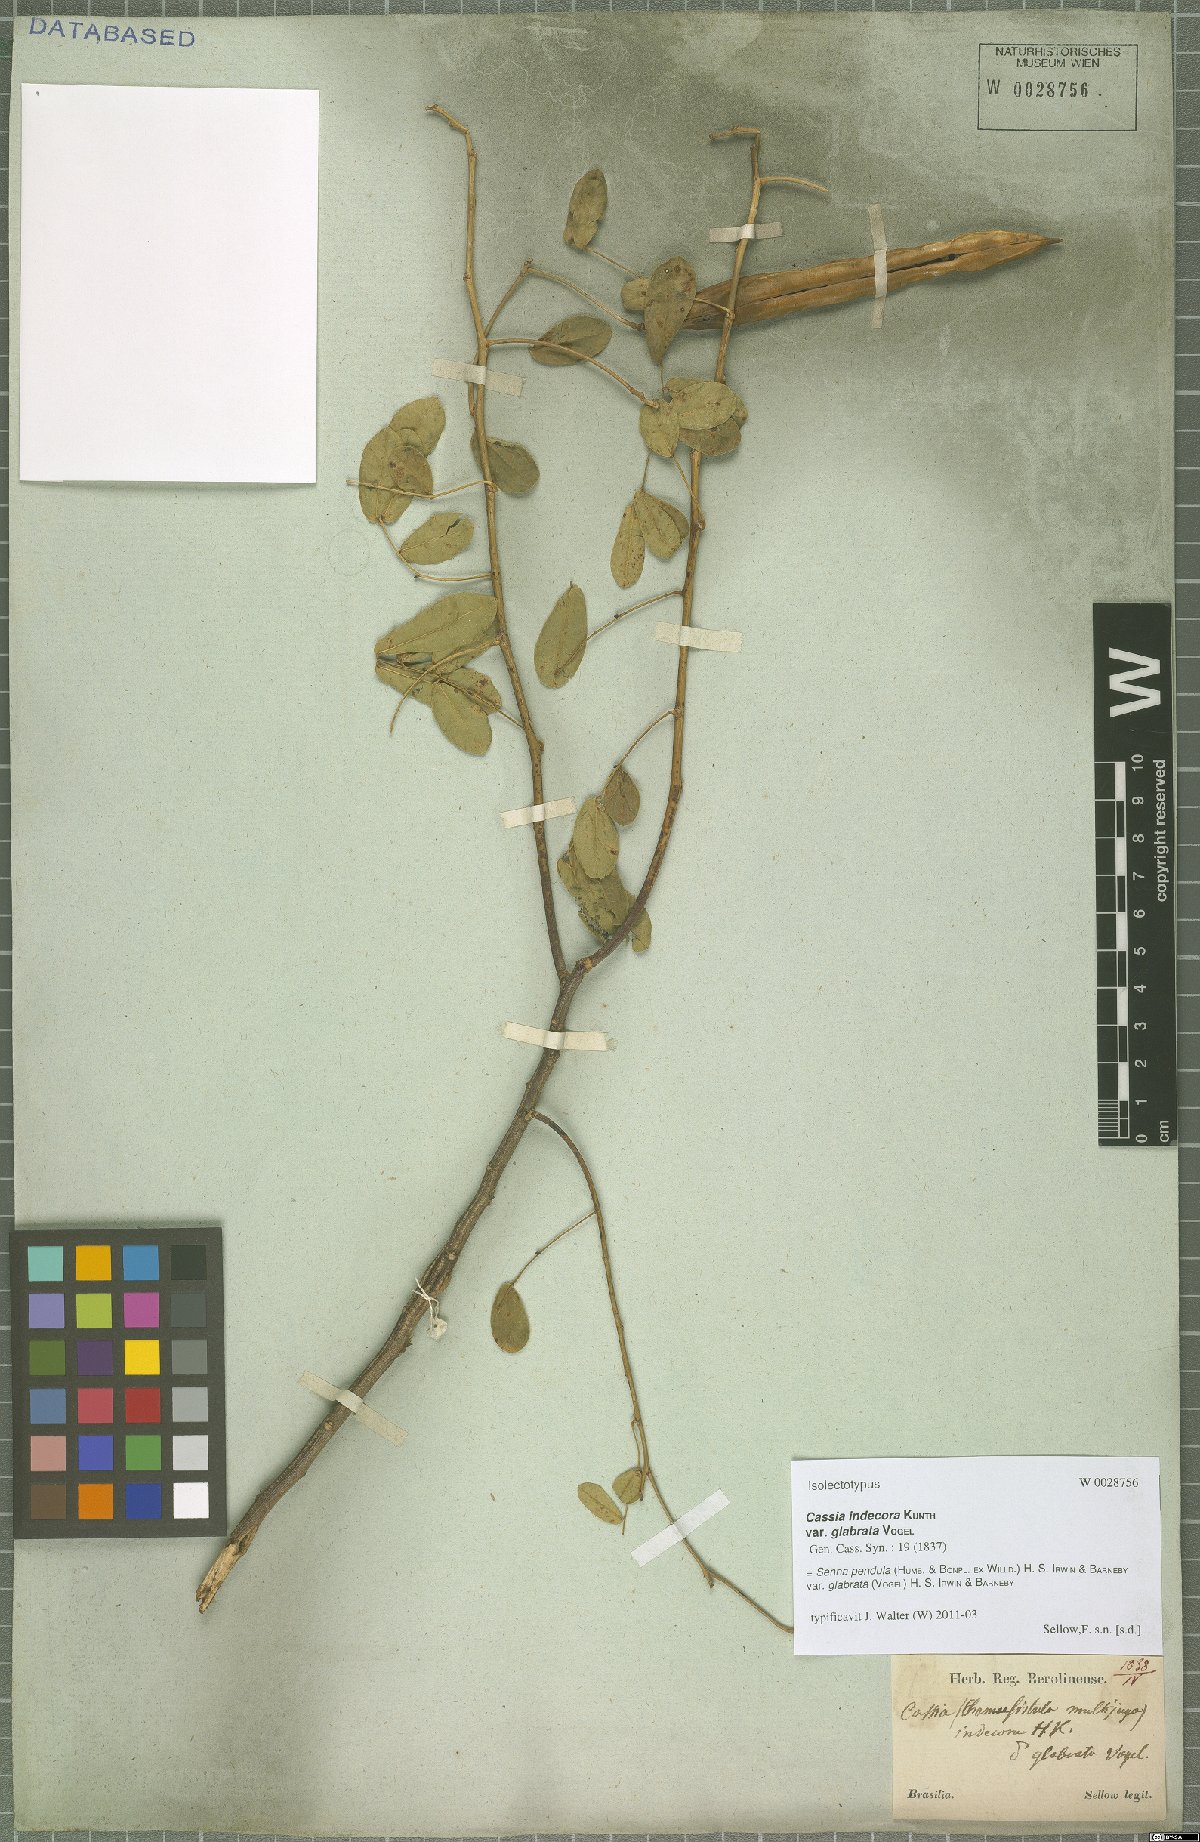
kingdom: Plantae
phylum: Tracheophyta
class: Magnoliopsida
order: Fabales
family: Fabaceae
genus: Senna
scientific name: Senna pendula
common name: Easter cassia
